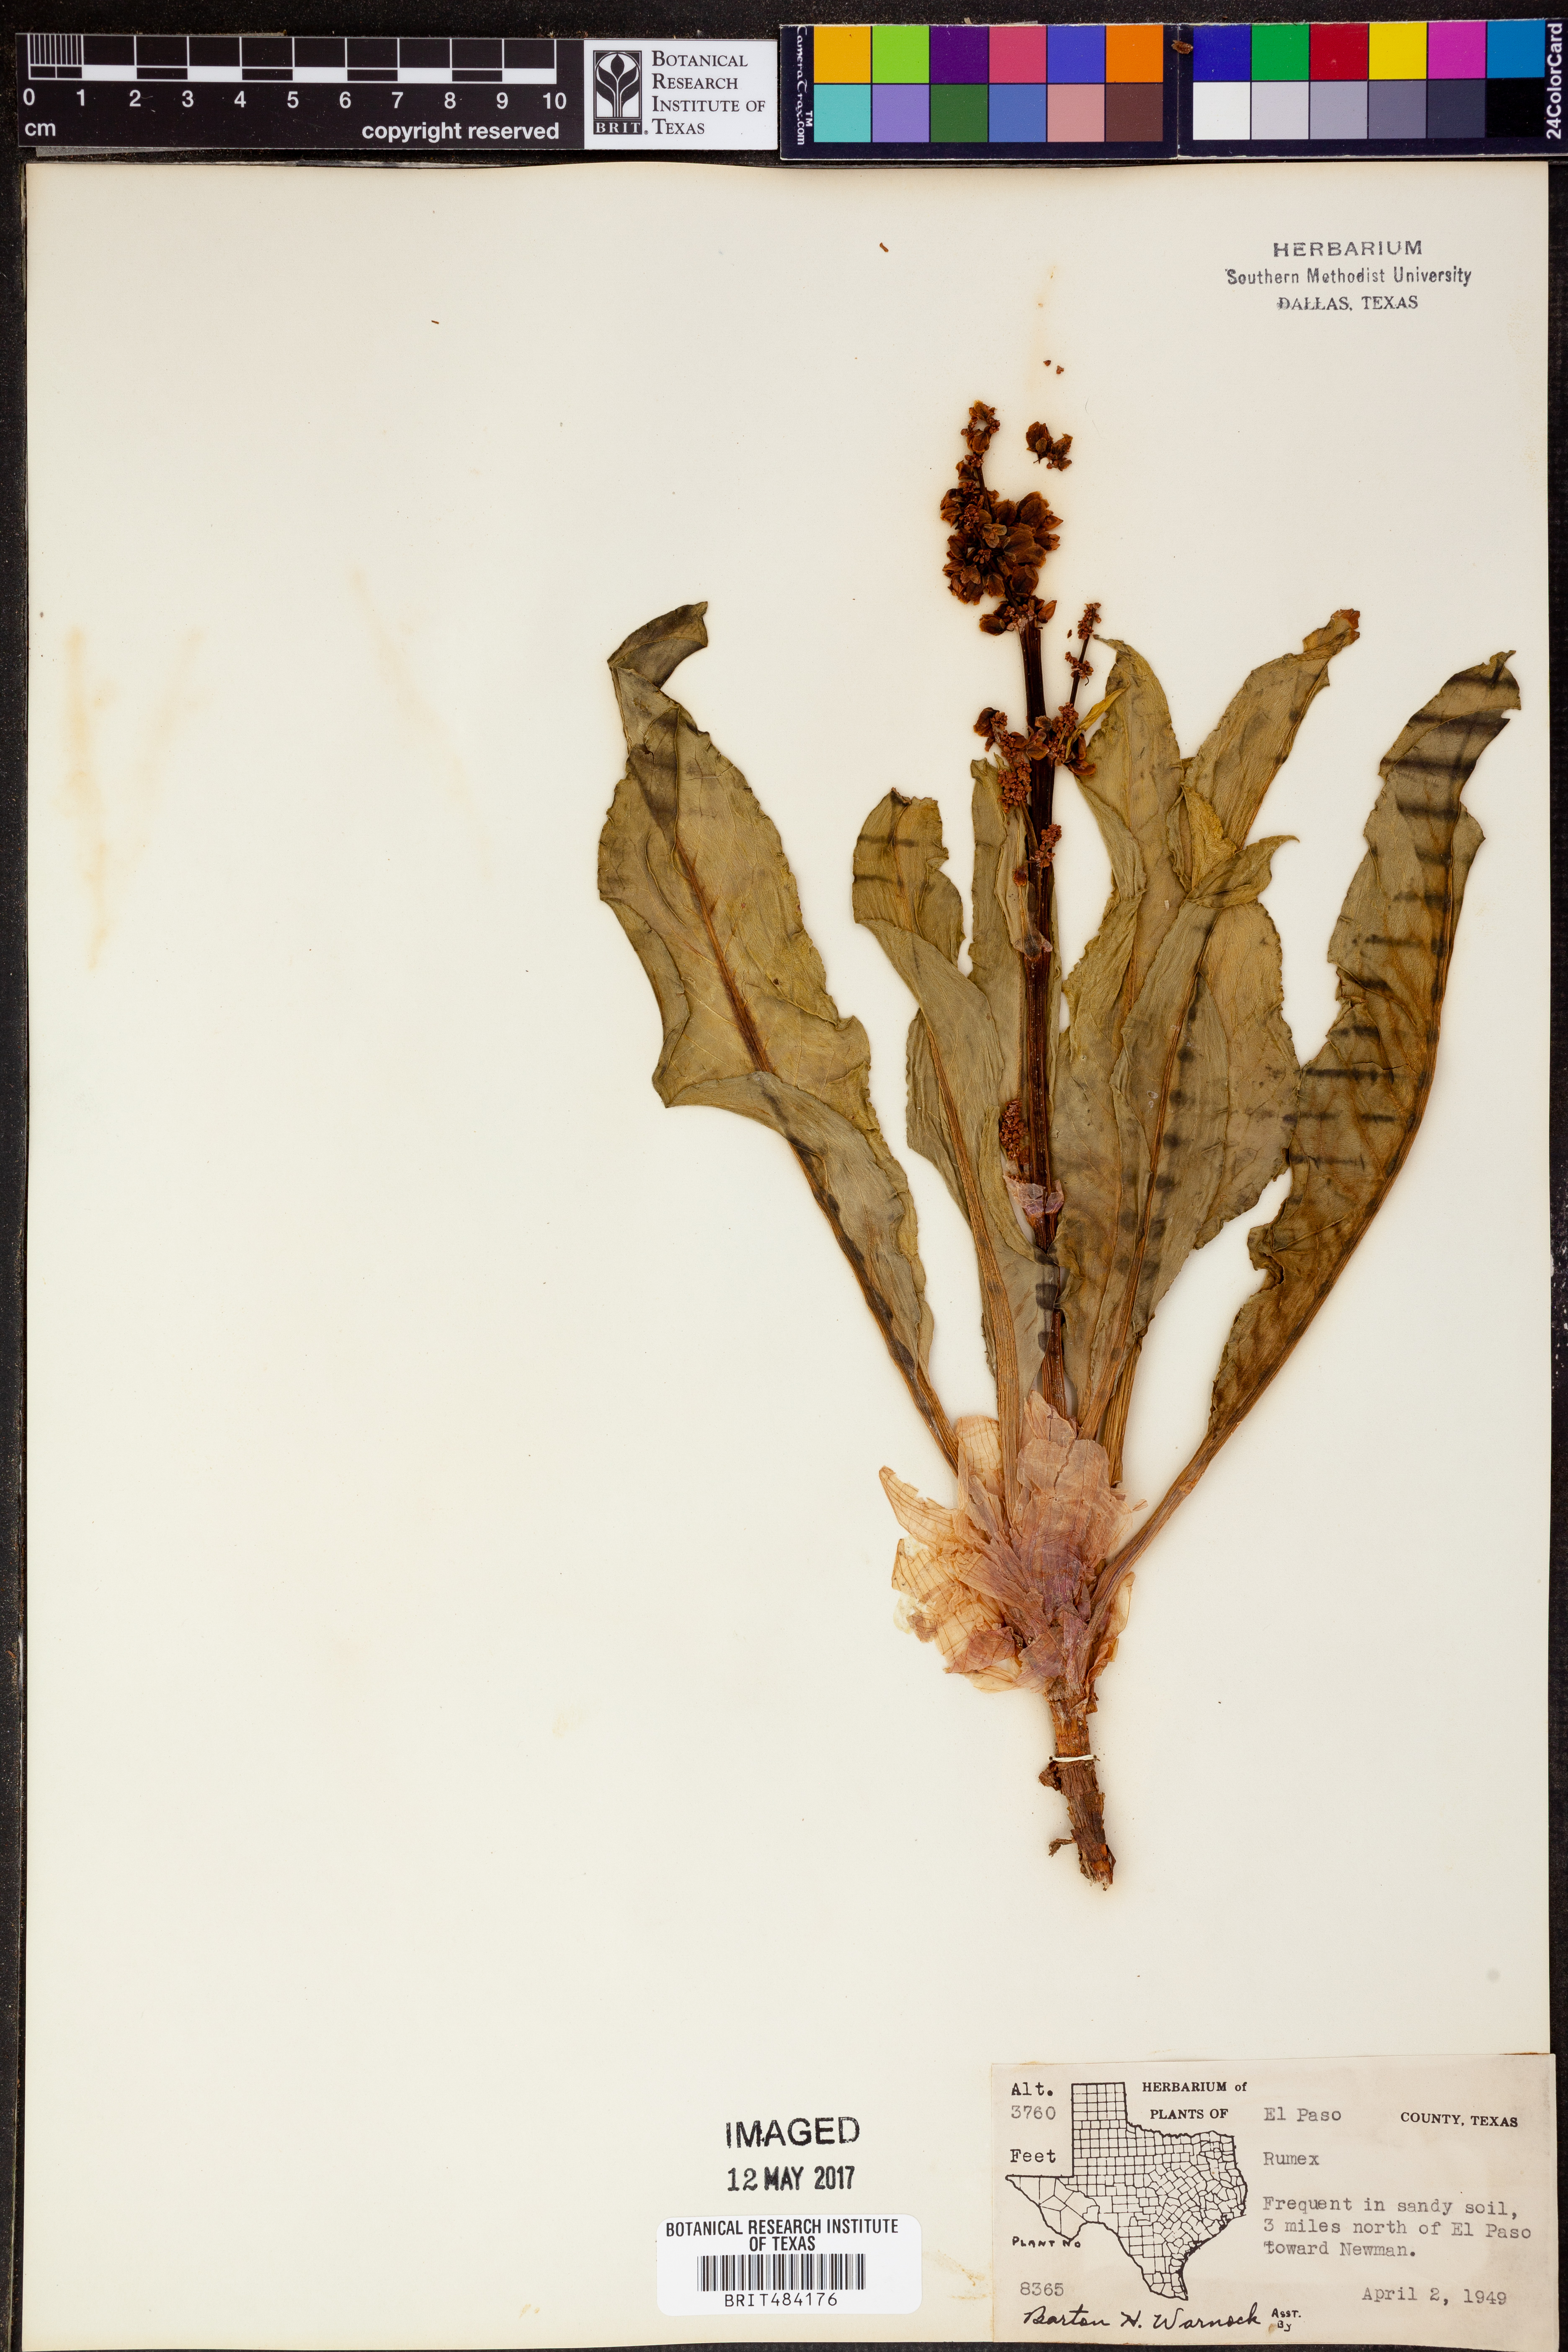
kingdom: Plantae
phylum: Tracheophyta
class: Magnoliopsida
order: Caryophyllales
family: Polygonaceae
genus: Rumex
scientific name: Rumex
